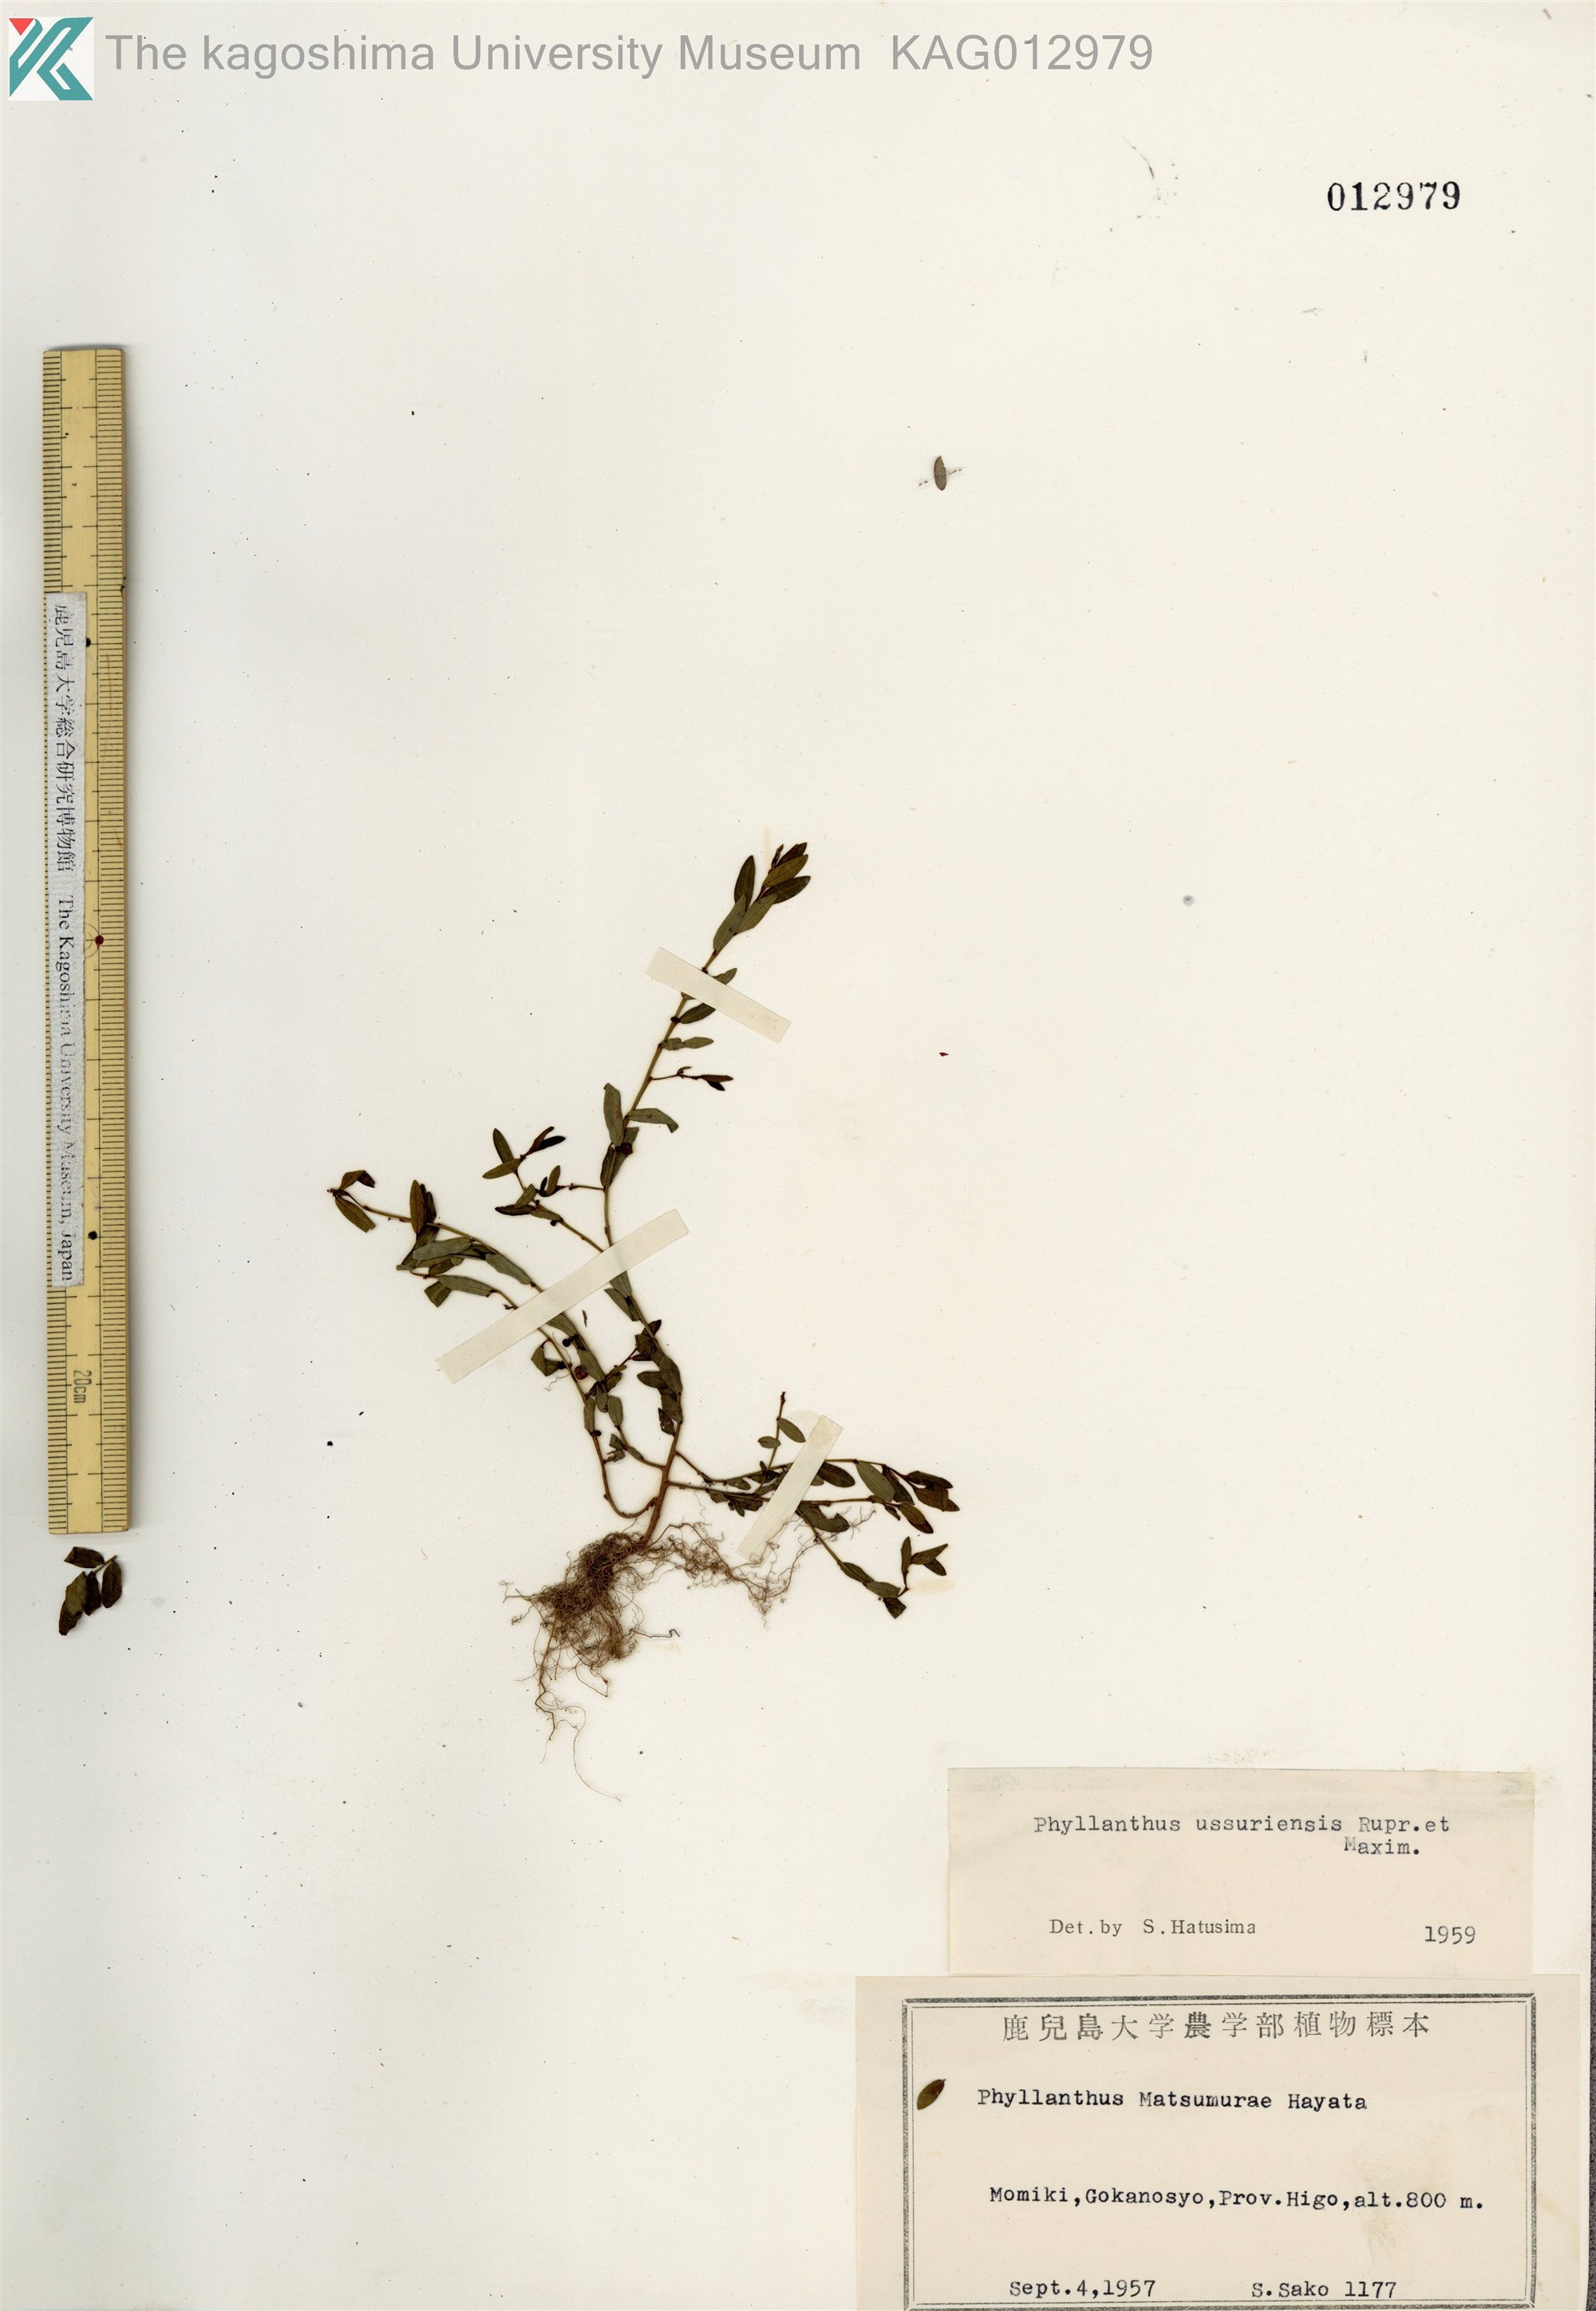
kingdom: Plantae
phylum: Tracheophyta
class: Magnoliopsida
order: Malpighiales
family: Phyllanthaceae
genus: Phyllanthus
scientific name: Phyllanthus ussuriensis
